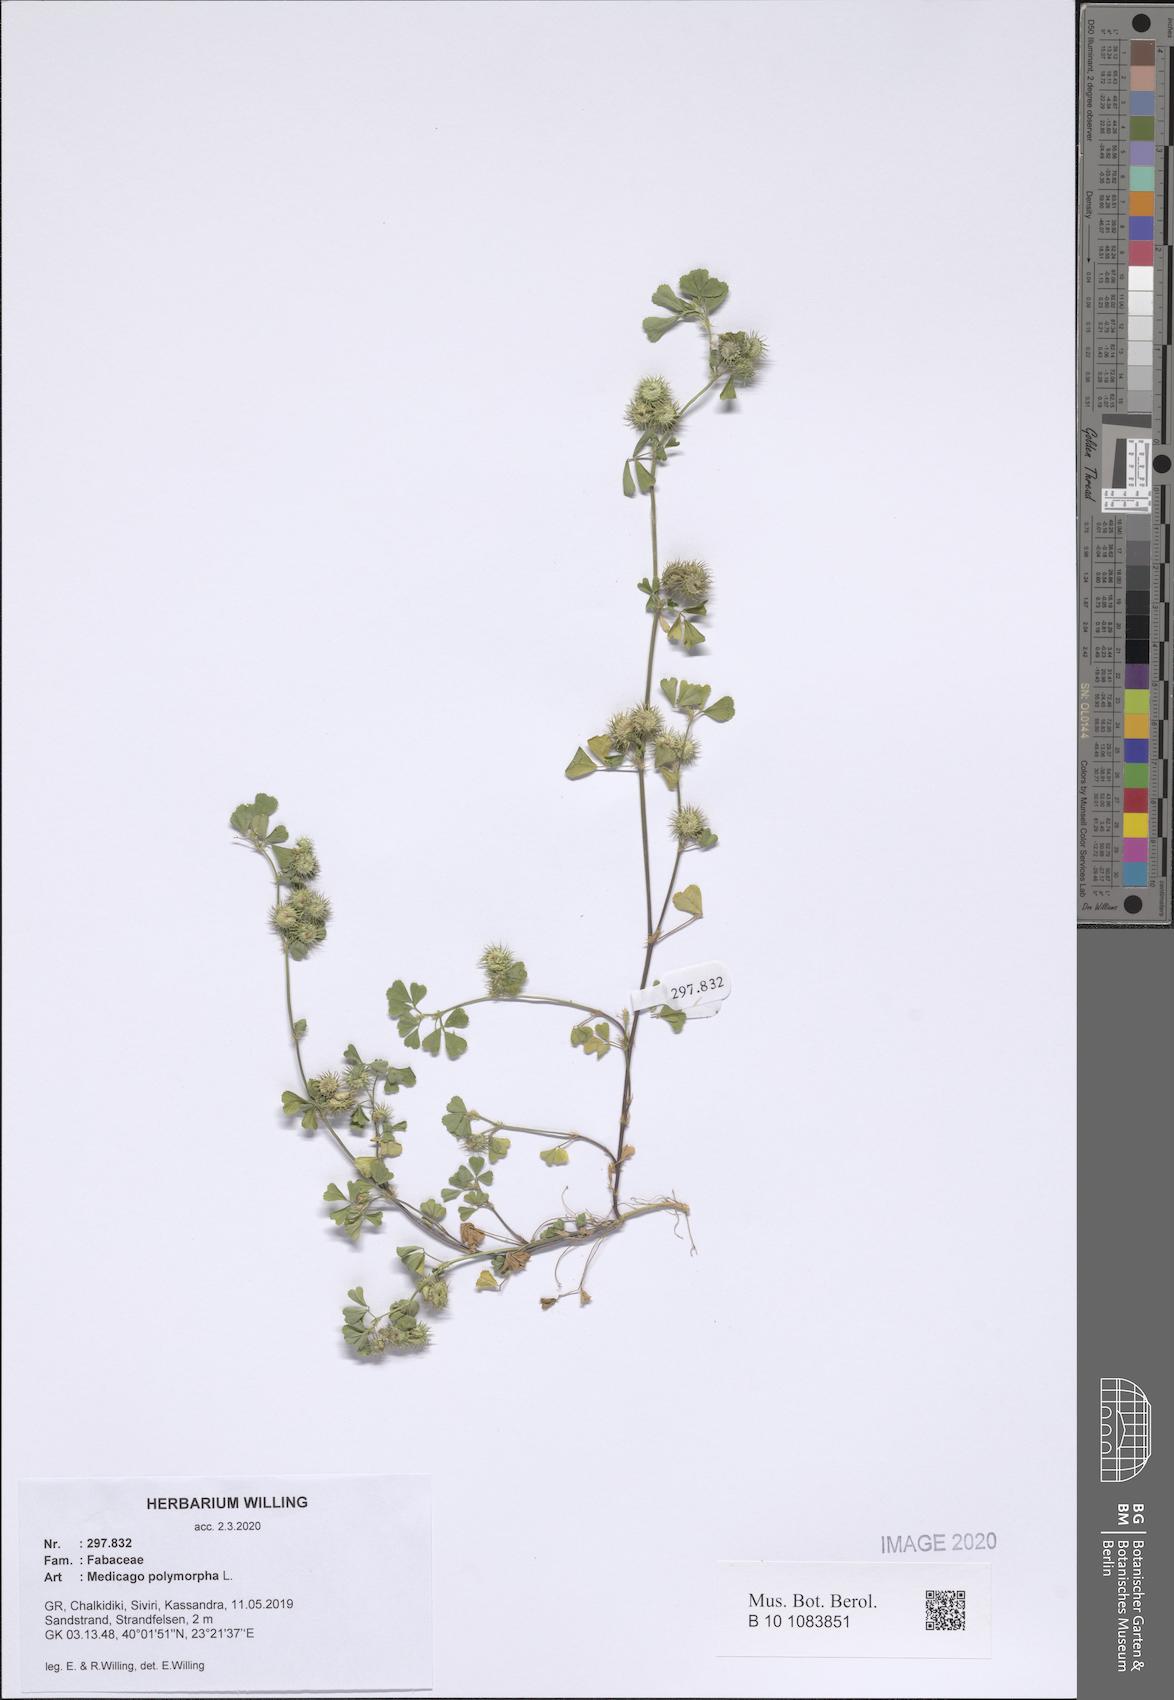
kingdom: Plantae
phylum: Tracheophyta
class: Magnoliopsida
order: Fabales
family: Fabaceae
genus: Medicago
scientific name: Medicago polymorpha
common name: Burclover
